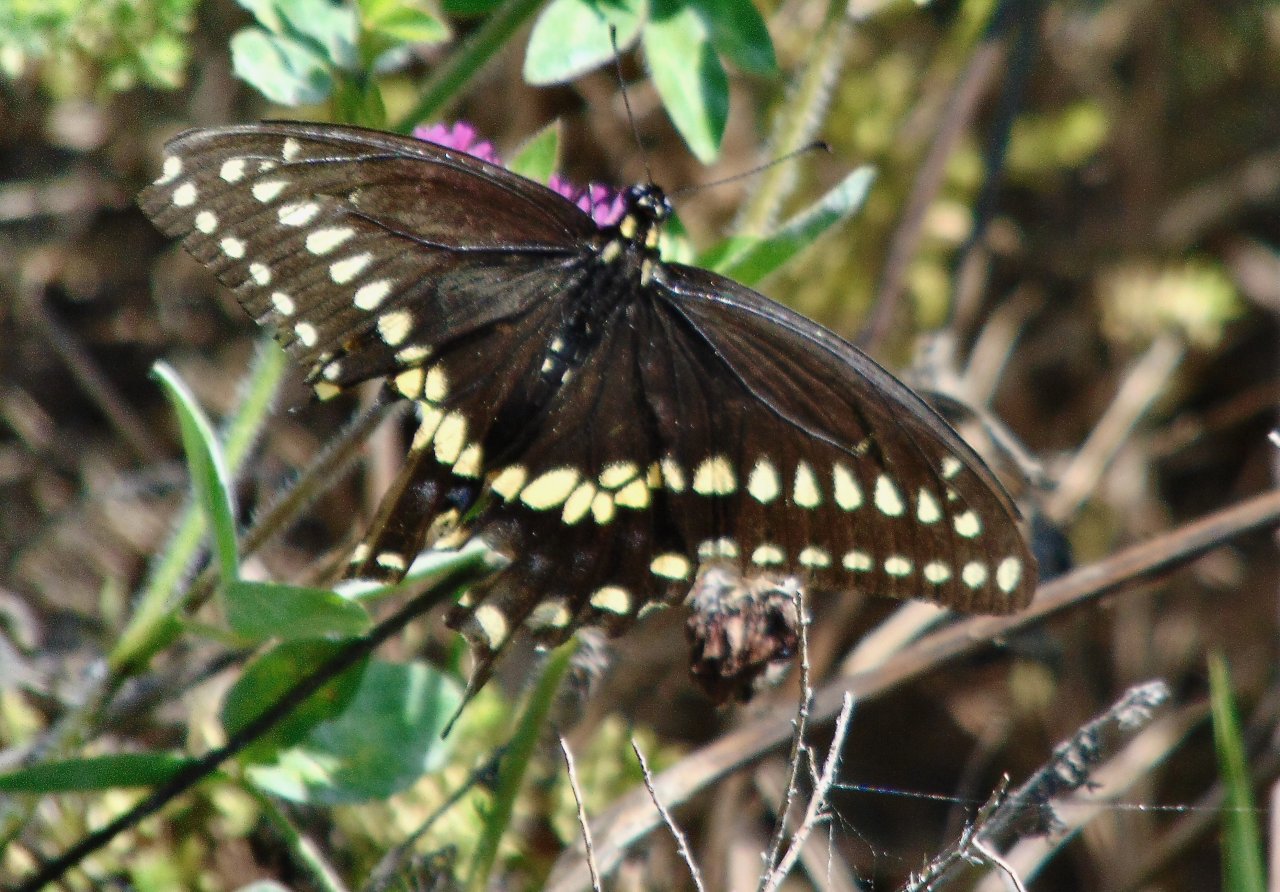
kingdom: Animalia
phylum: Arthropoda
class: Insecta
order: Lepidoptera
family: Papilionidae
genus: Papilio
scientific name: Papilio polyxenes
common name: Black Swallowtail
